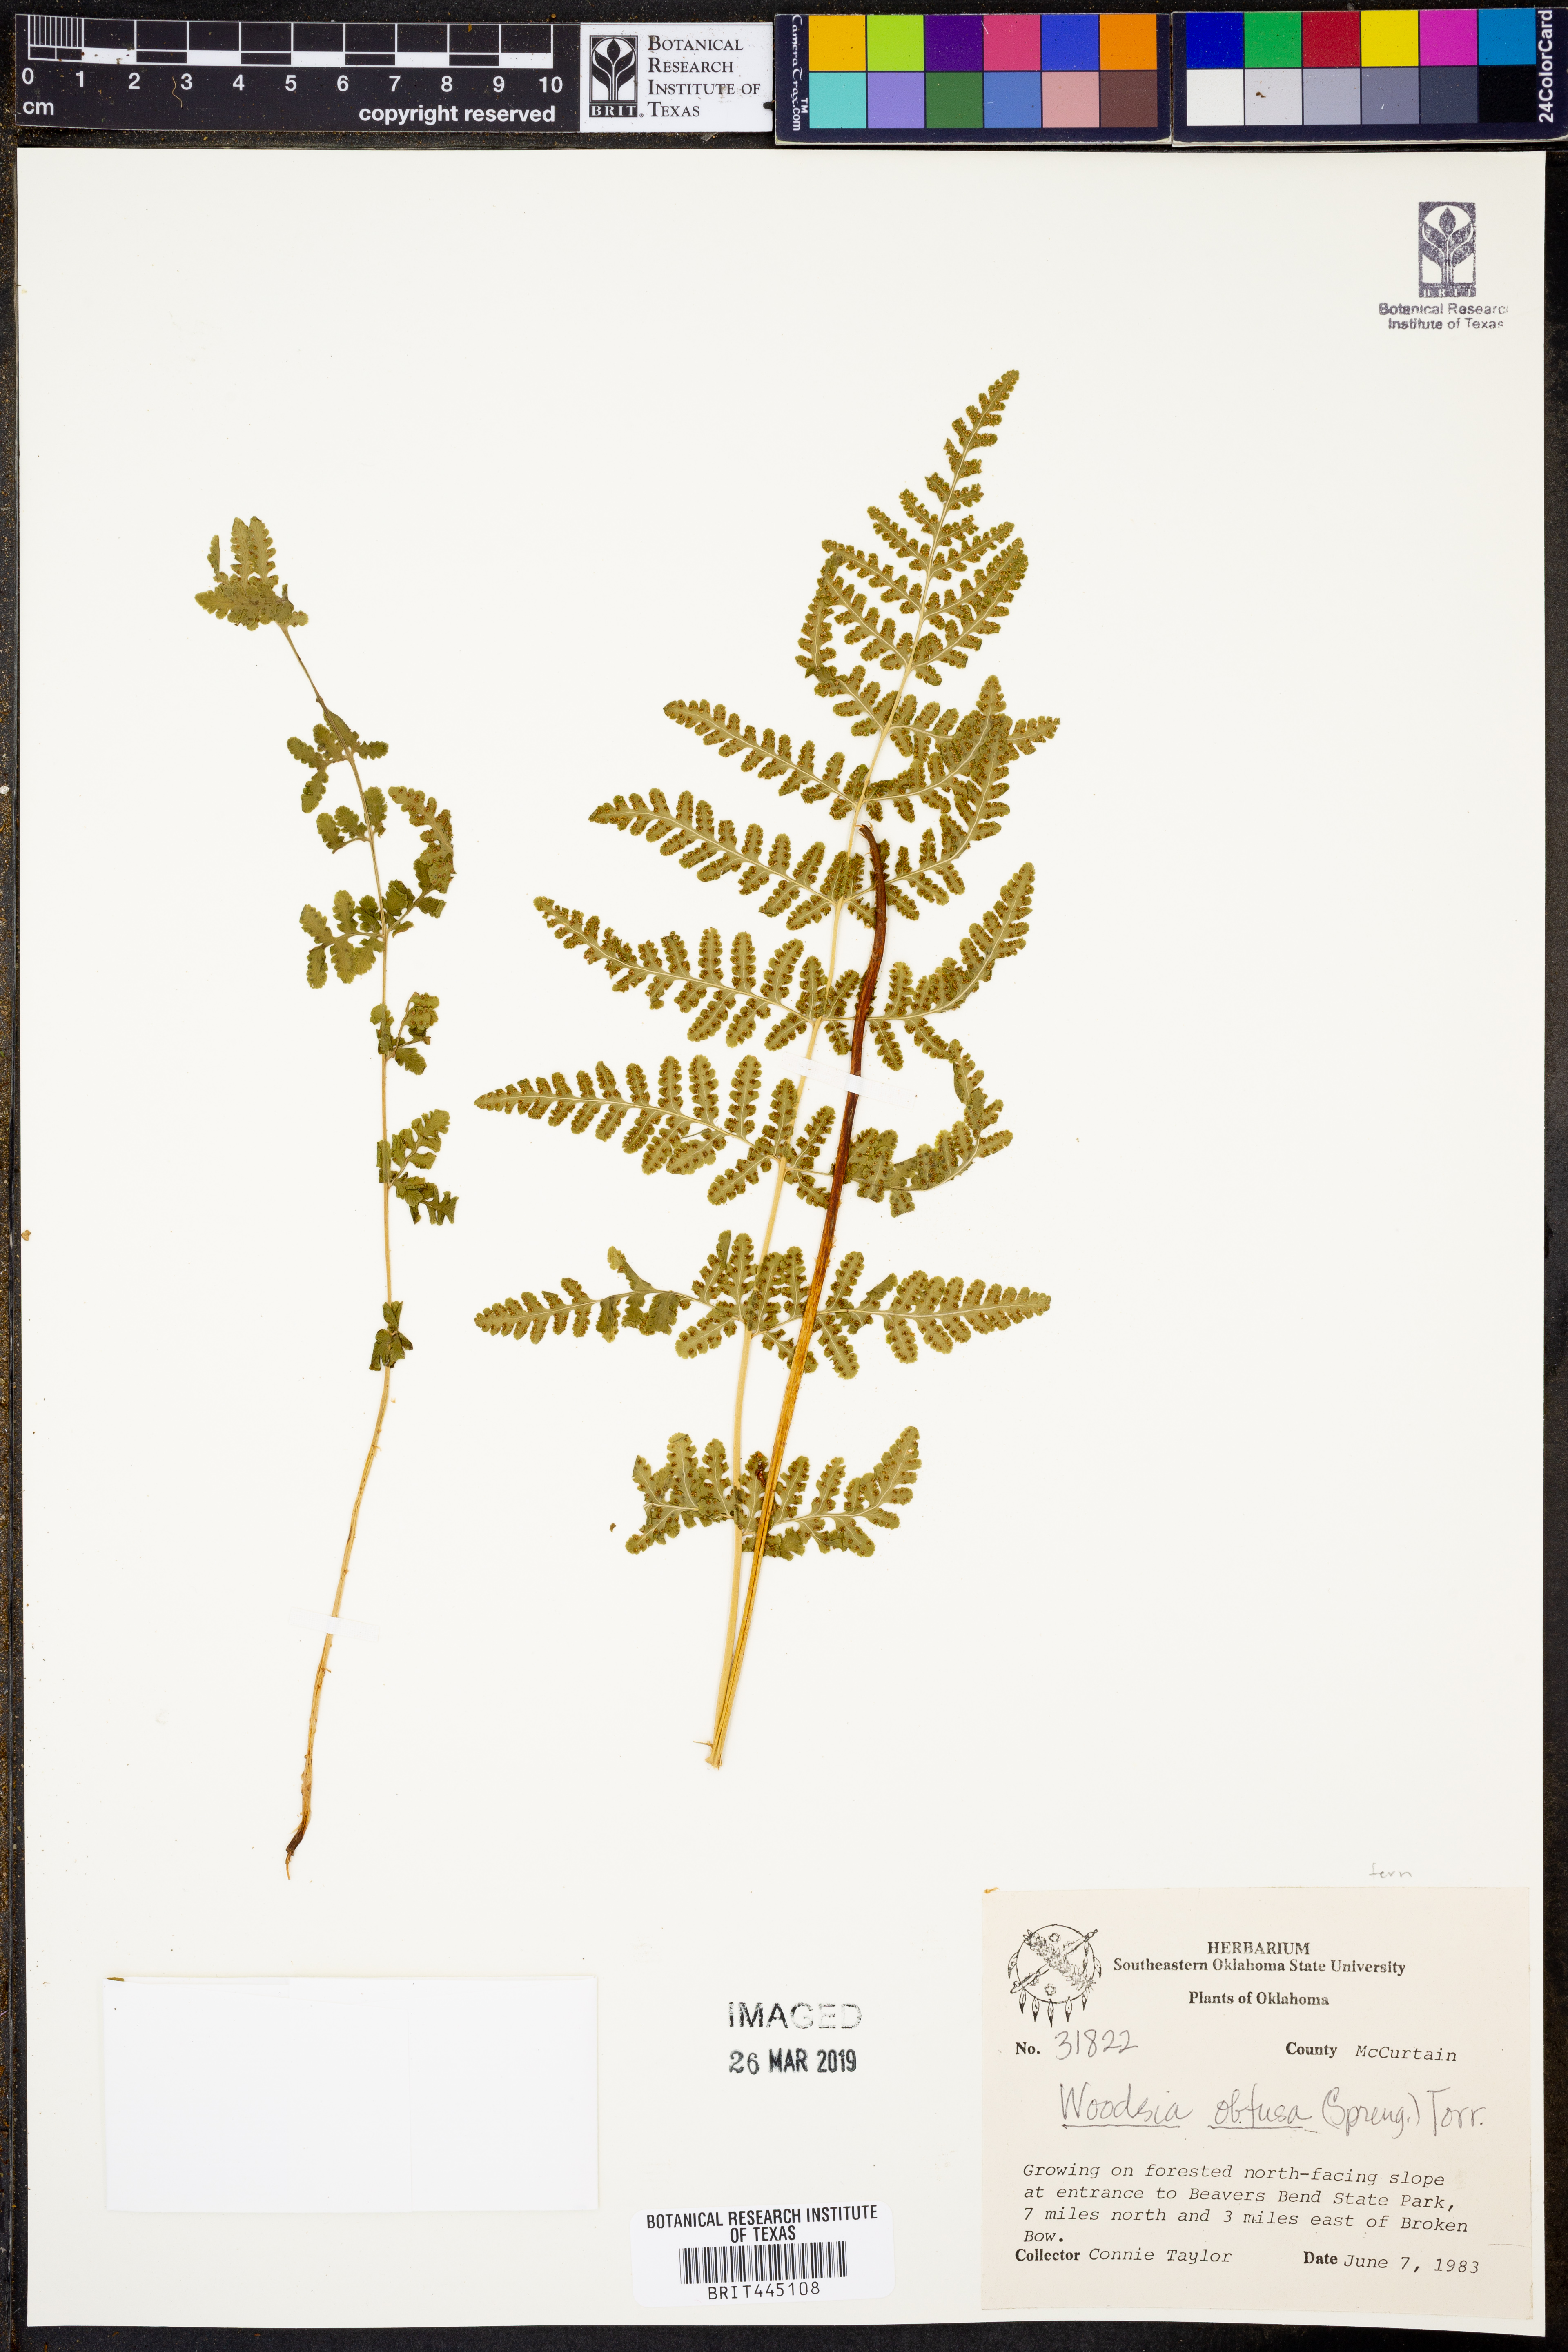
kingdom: Plantae
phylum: Tracheophyta
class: Polypodiopsida
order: Polypodiales
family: Woodsiaceae
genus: Physematium
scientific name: Physematium obtusum
